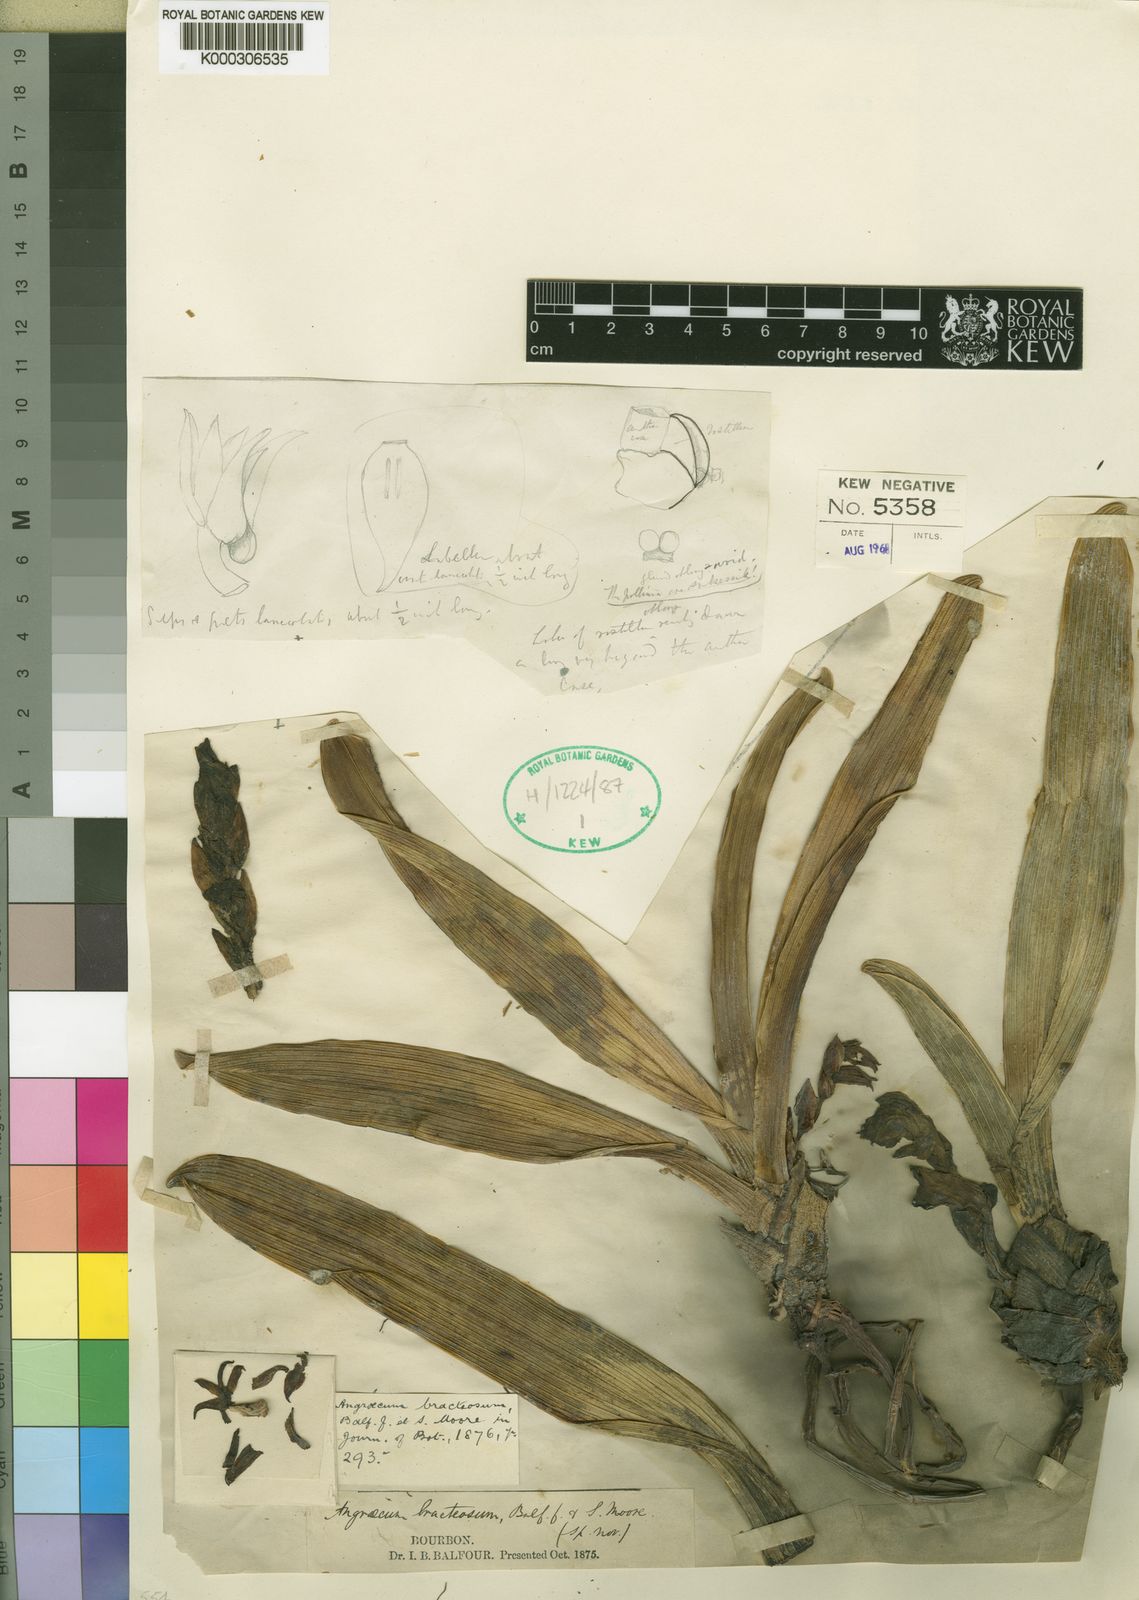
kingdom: Plantae
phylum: Tracheophyta
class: Liliopsida
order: Asparagales
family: Orchidaceae
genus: Angraecum
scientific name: Angraecum bracteosum
